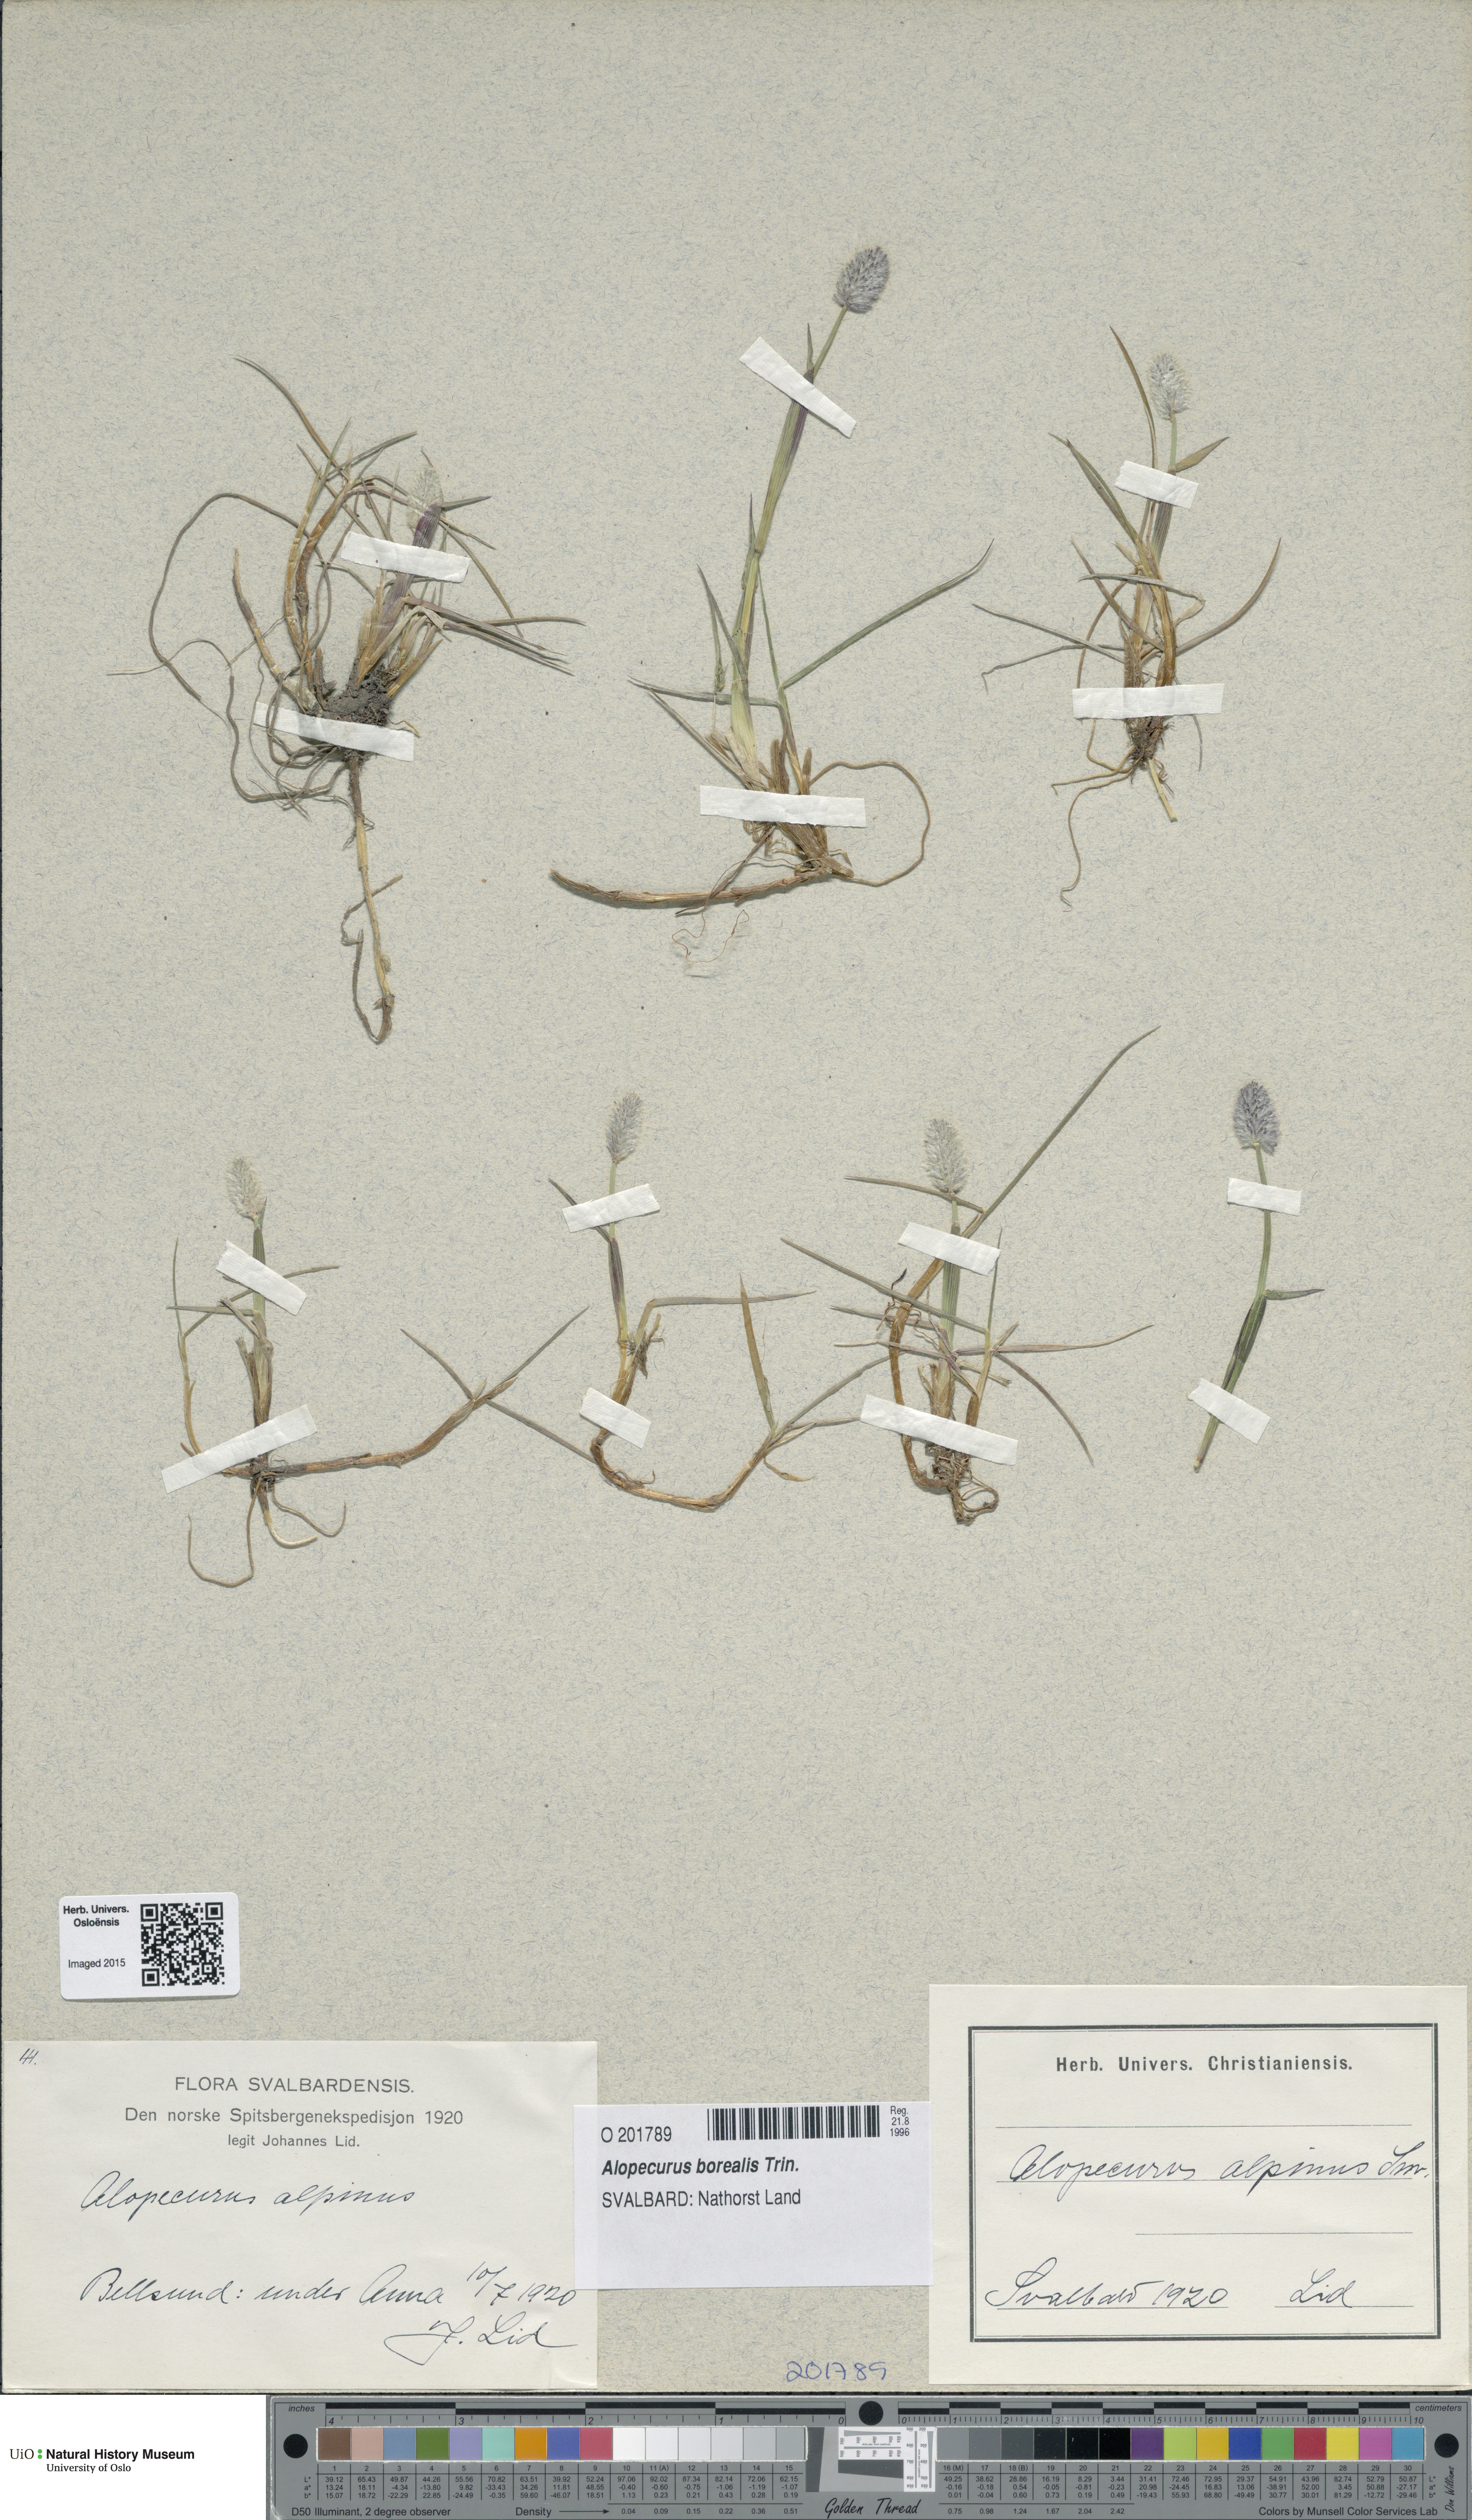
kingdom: Plantae
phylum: Tracheophyta
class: Liliopsida
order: Poales
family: Poaceae
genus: Alopecurus
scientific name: Alopecurus magellanicus
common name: Alpine foxtail
